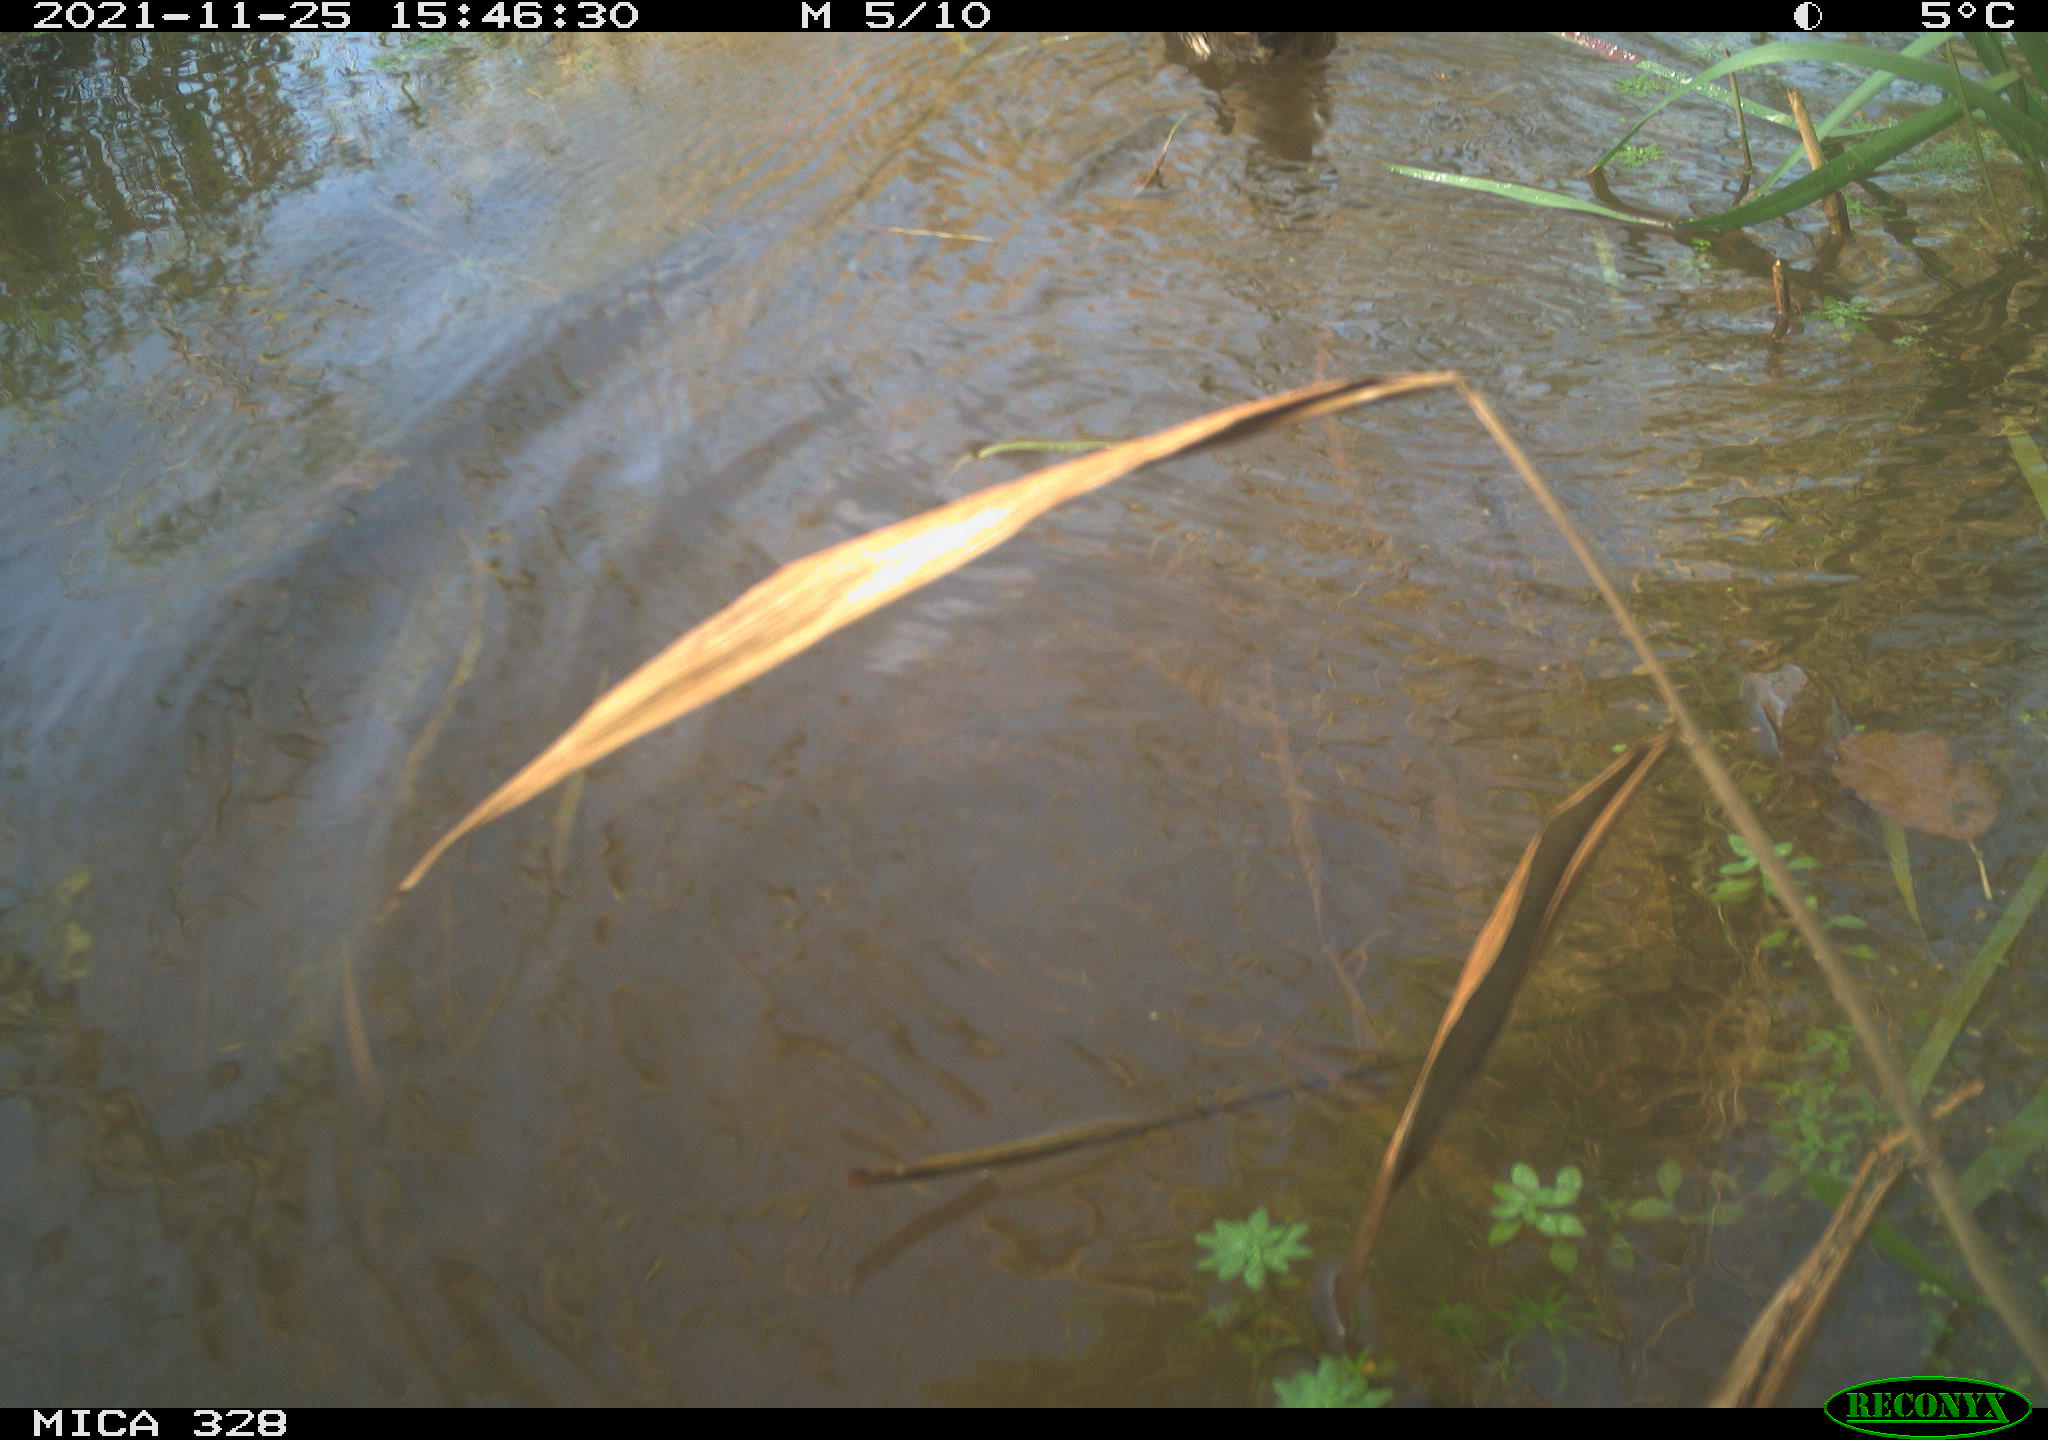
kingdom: Animalia
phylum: Chordata
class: Aves
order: Gruiformes
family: Rallidae
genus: Gallinula
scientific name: Gallinula chloropus
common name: Common moorhen
